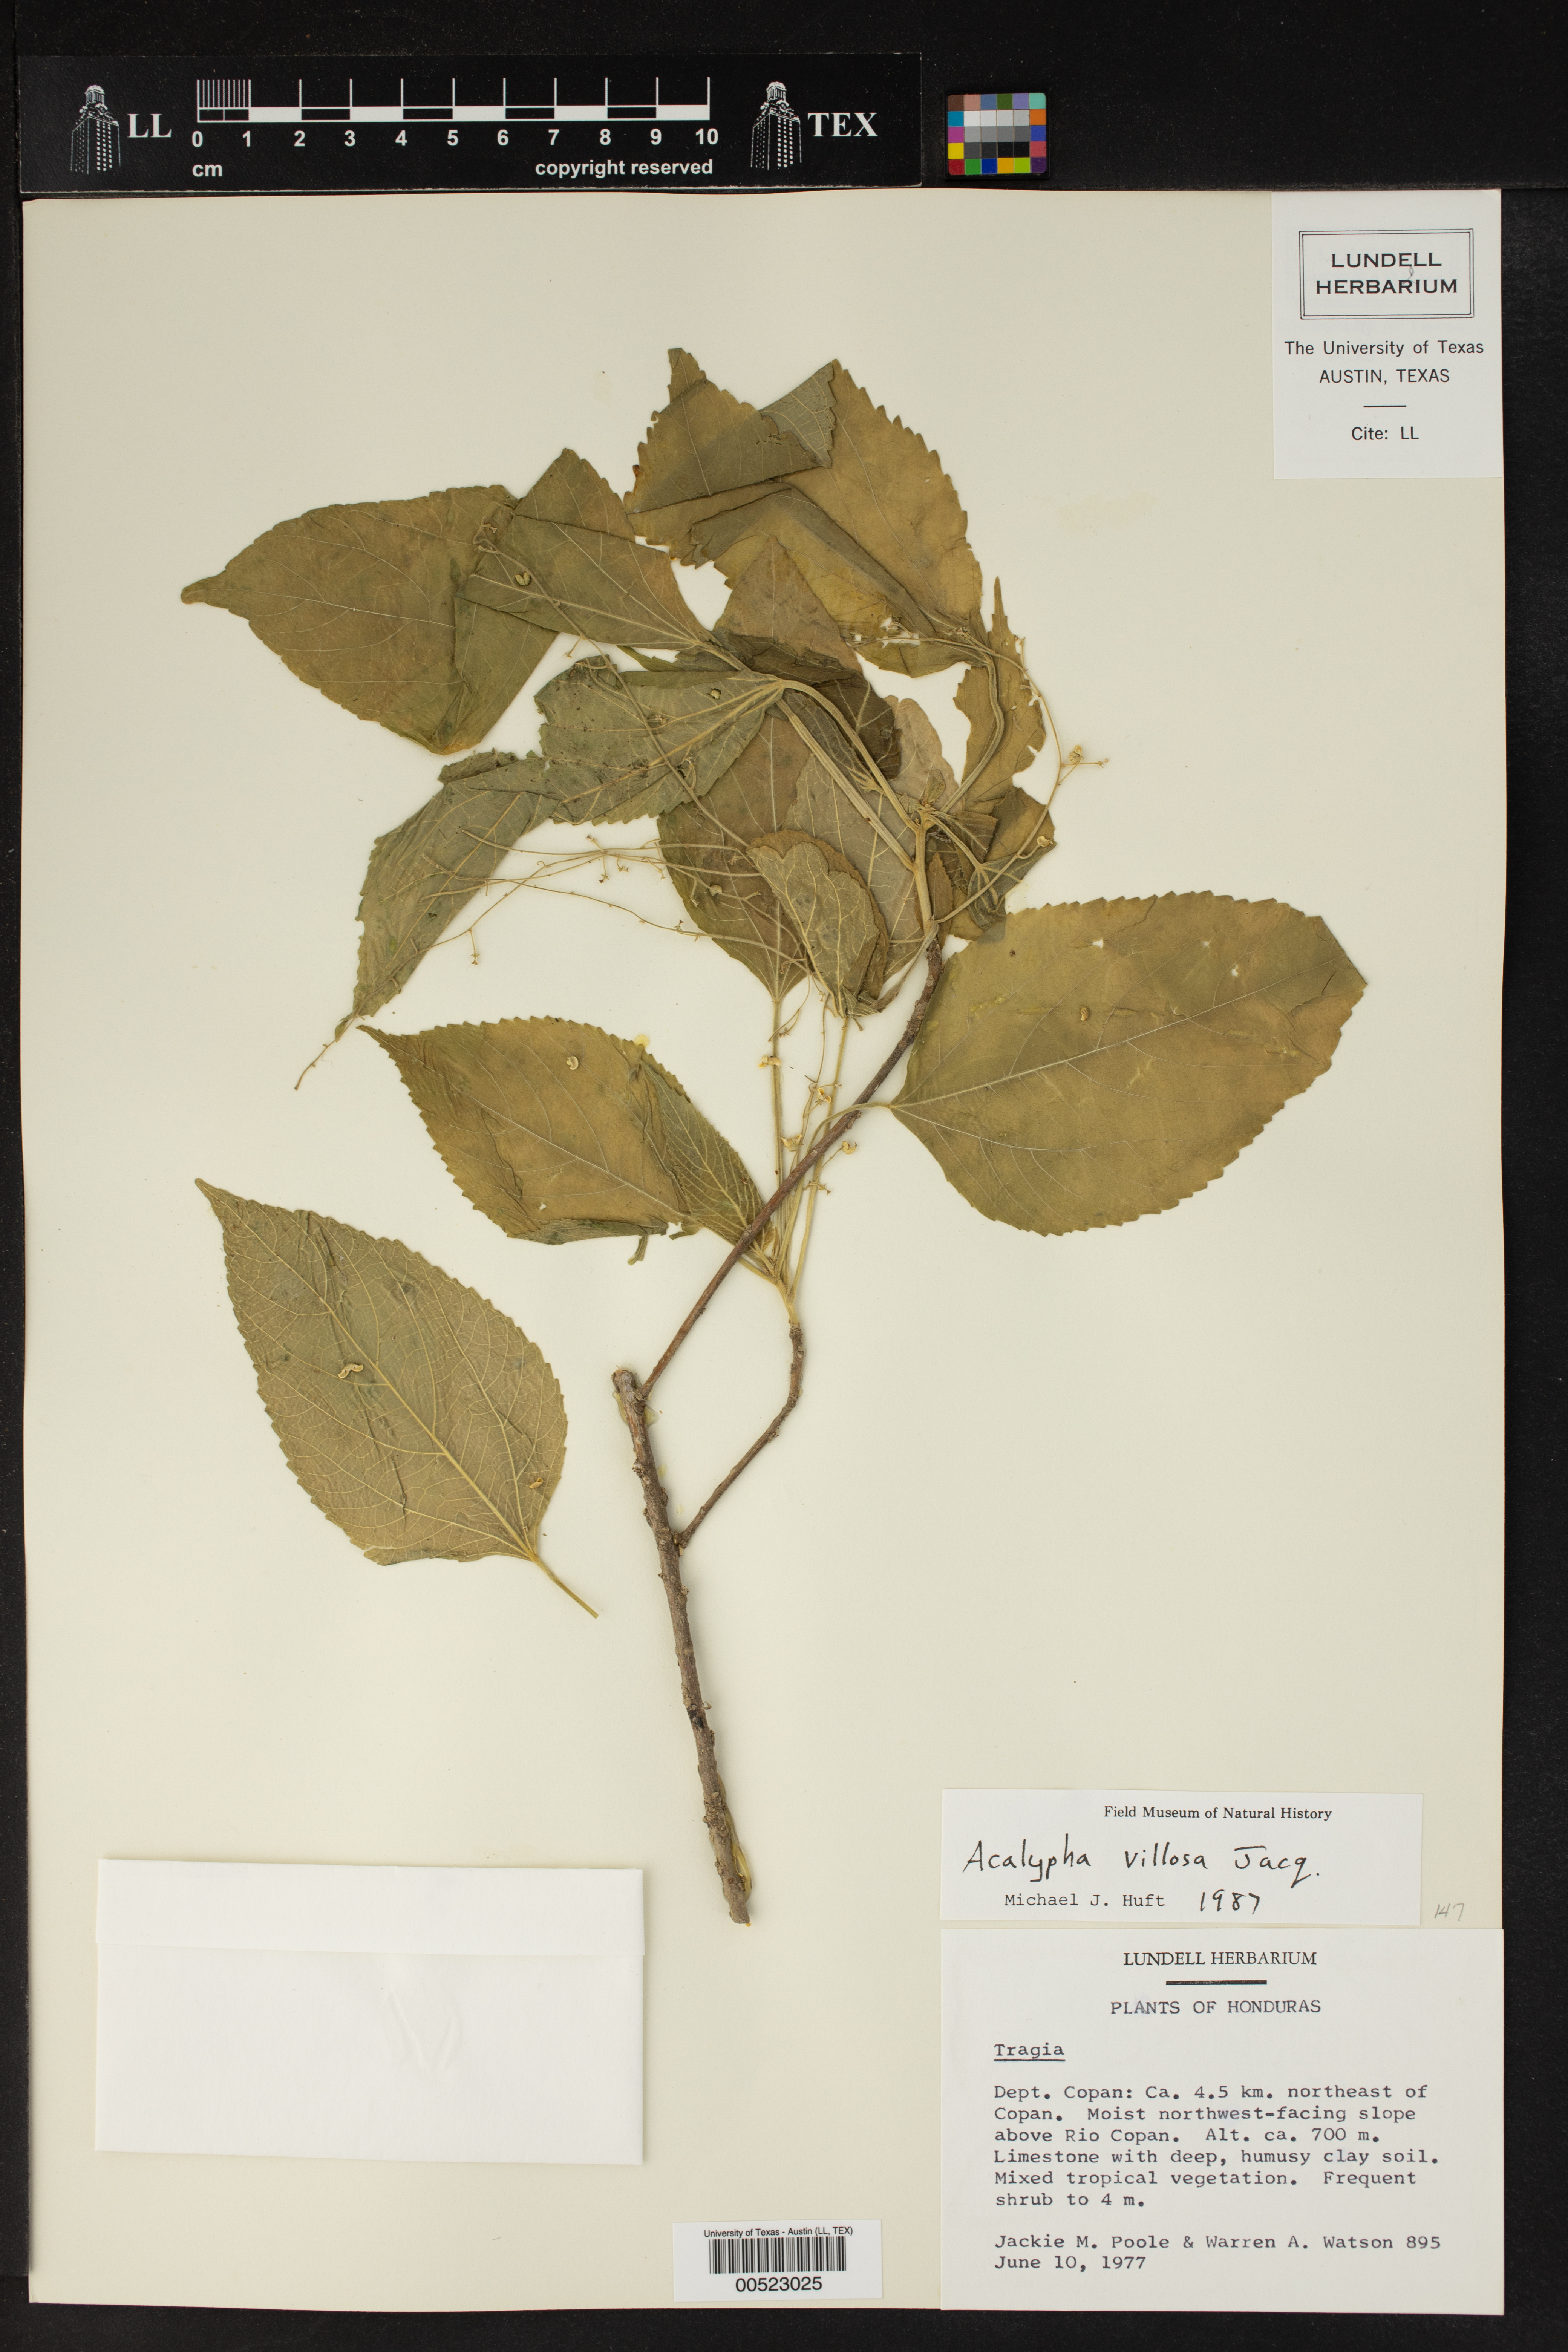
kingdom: Plantae
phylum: Tracheophyta
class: Magnoliopsida
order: Malpighiales
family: Euphorbiaceae
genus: Acalypha
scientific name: Acalypha villosa
